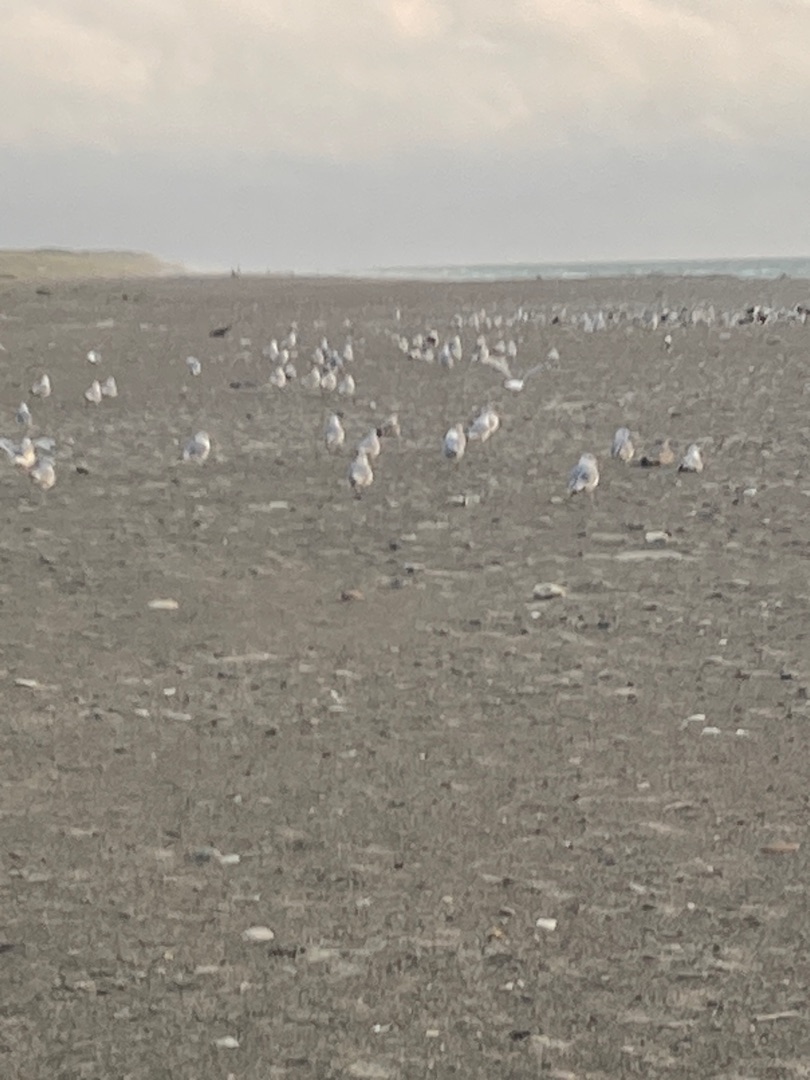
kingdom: Animalia
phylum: Chordata
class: Aves
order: Charadriiformes
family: Laridae
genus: Larus
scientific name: Larus argentatus
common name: Sølvmåge
